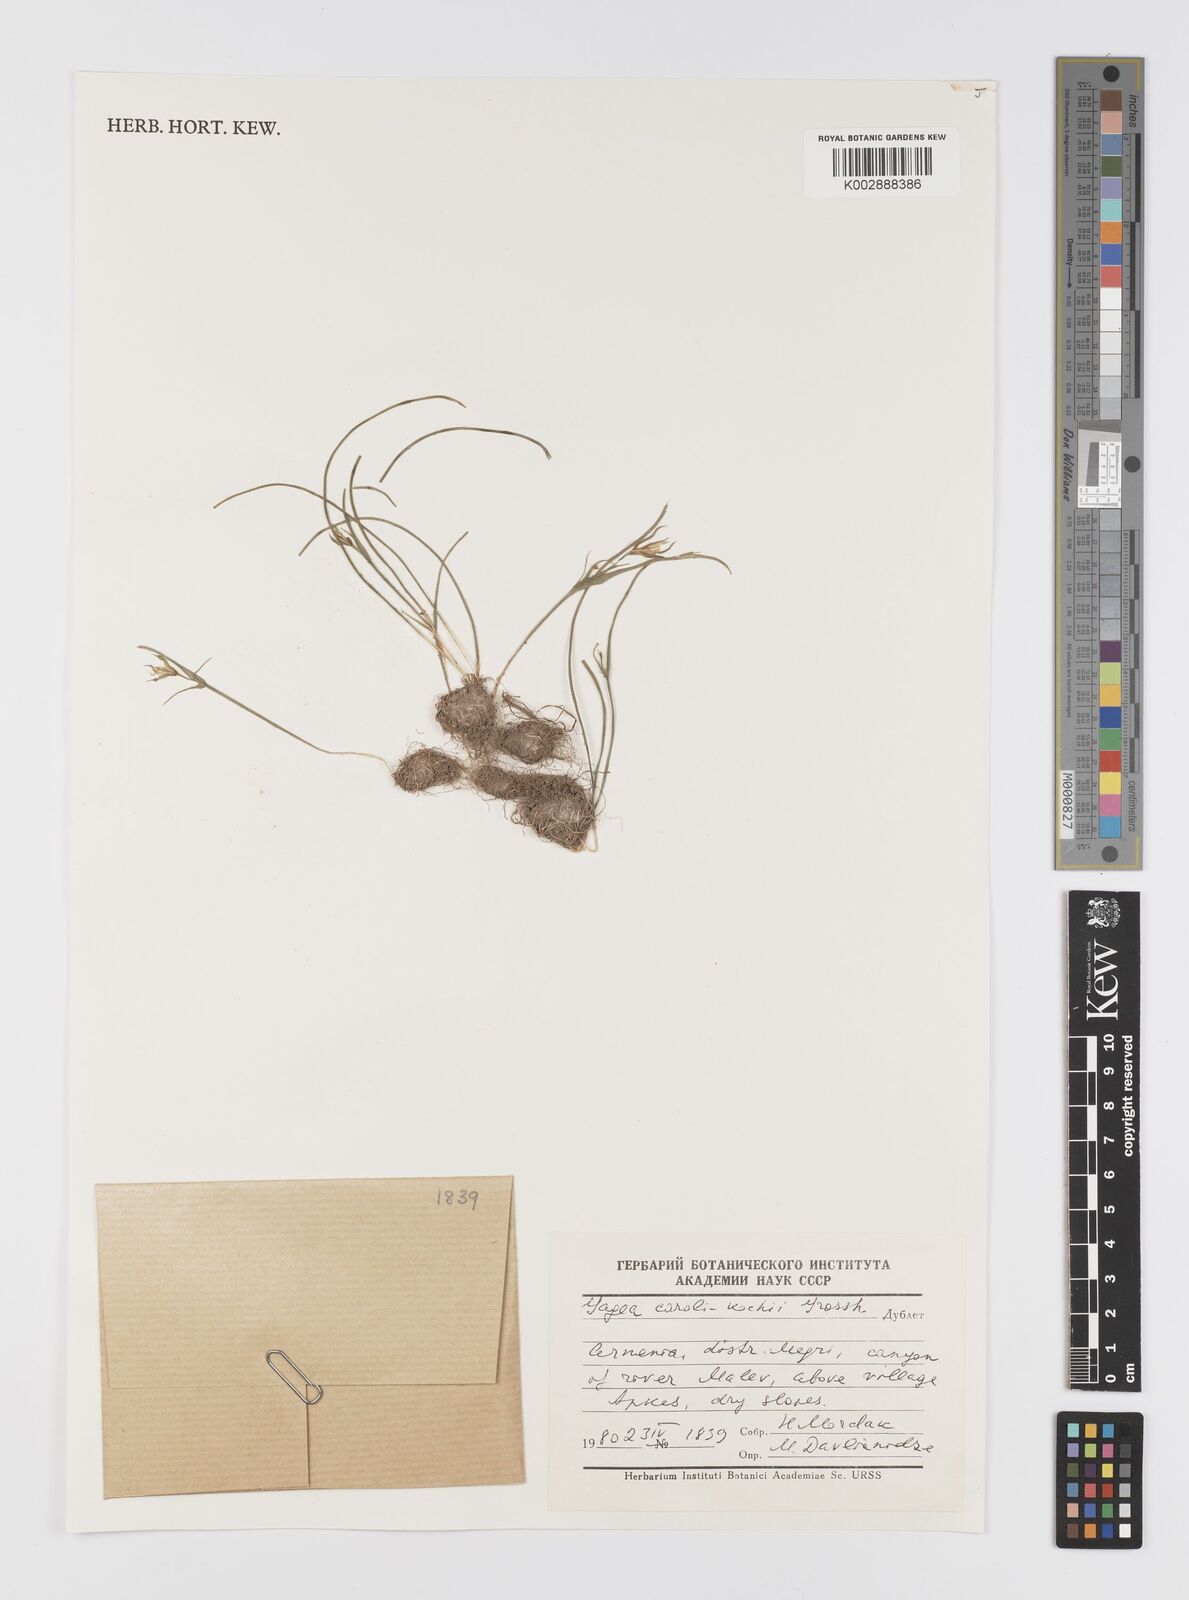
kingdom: Plantae
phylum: Tracheophyta
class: Liliopsida
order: Liliales
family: Liliaceae
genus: Gagea
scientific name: Gagea caroli-kochii
